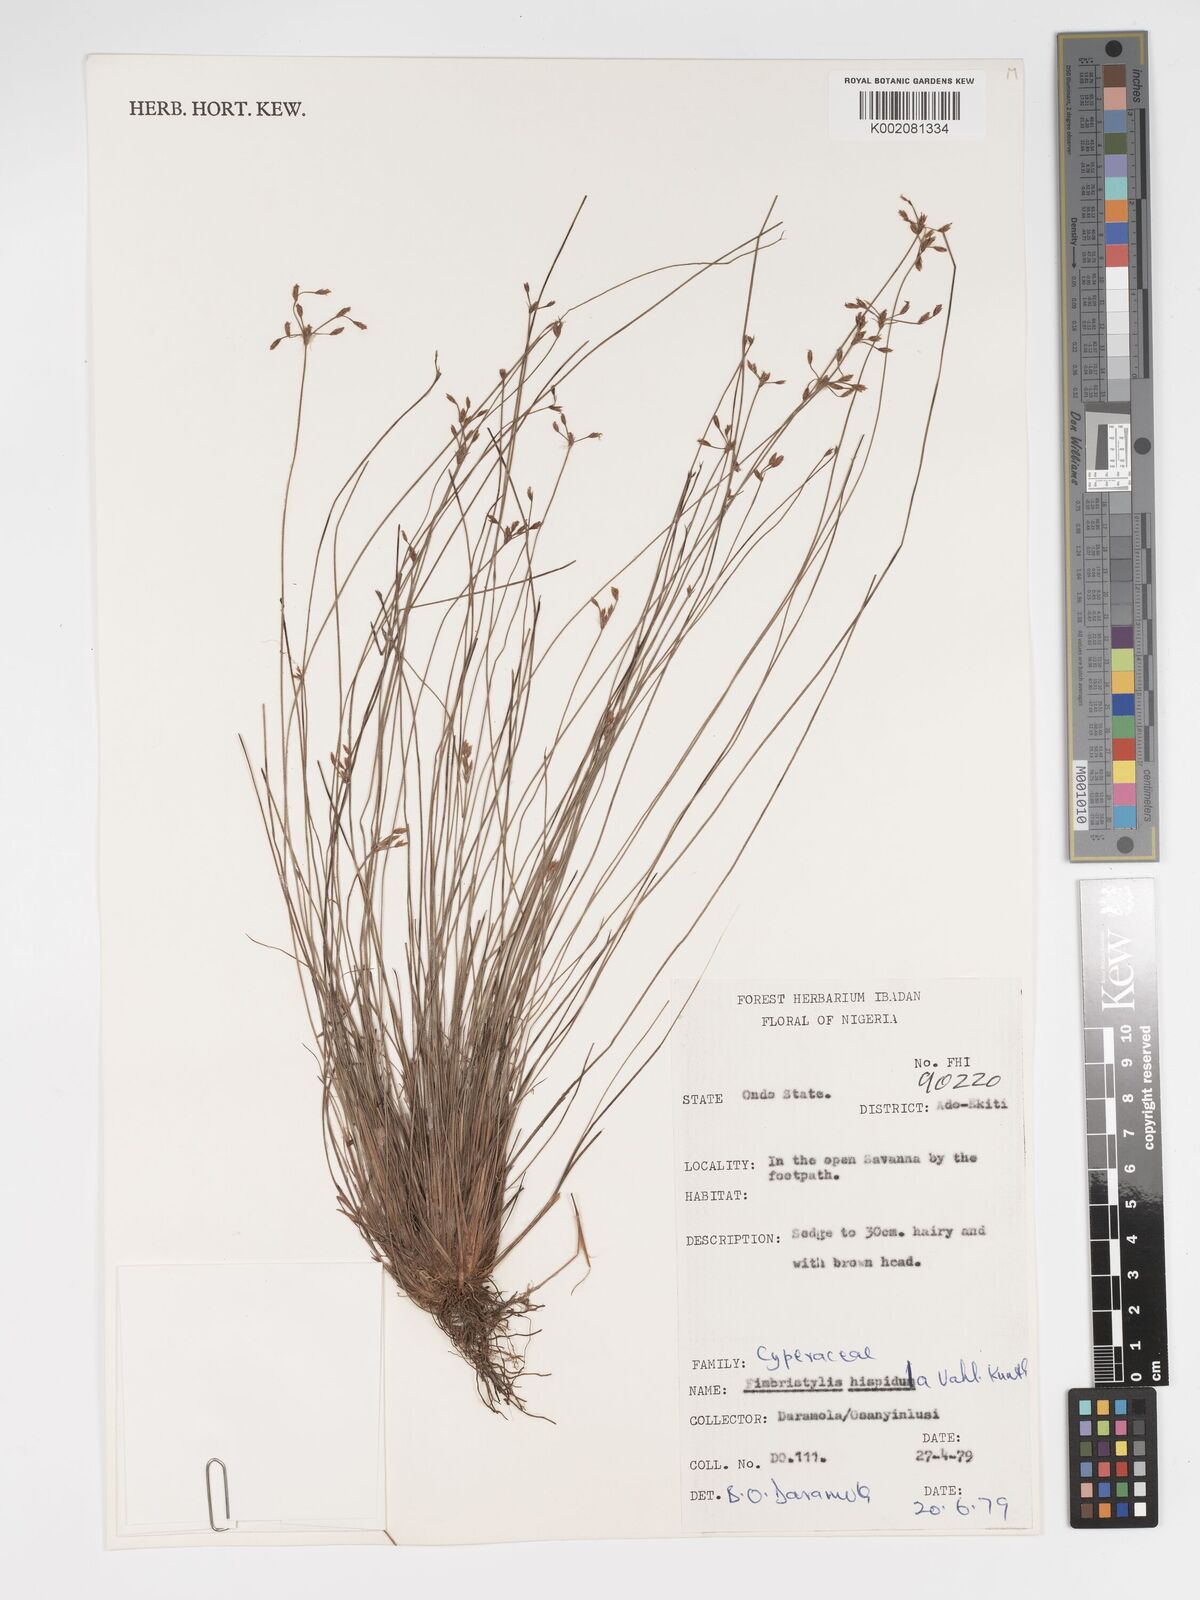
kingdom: Plantae
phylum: Tracheophyta
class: Liliopsida
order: Poales
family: Cyperaceae
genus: Bulbostylis
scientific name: Bulbostylis hispidula
